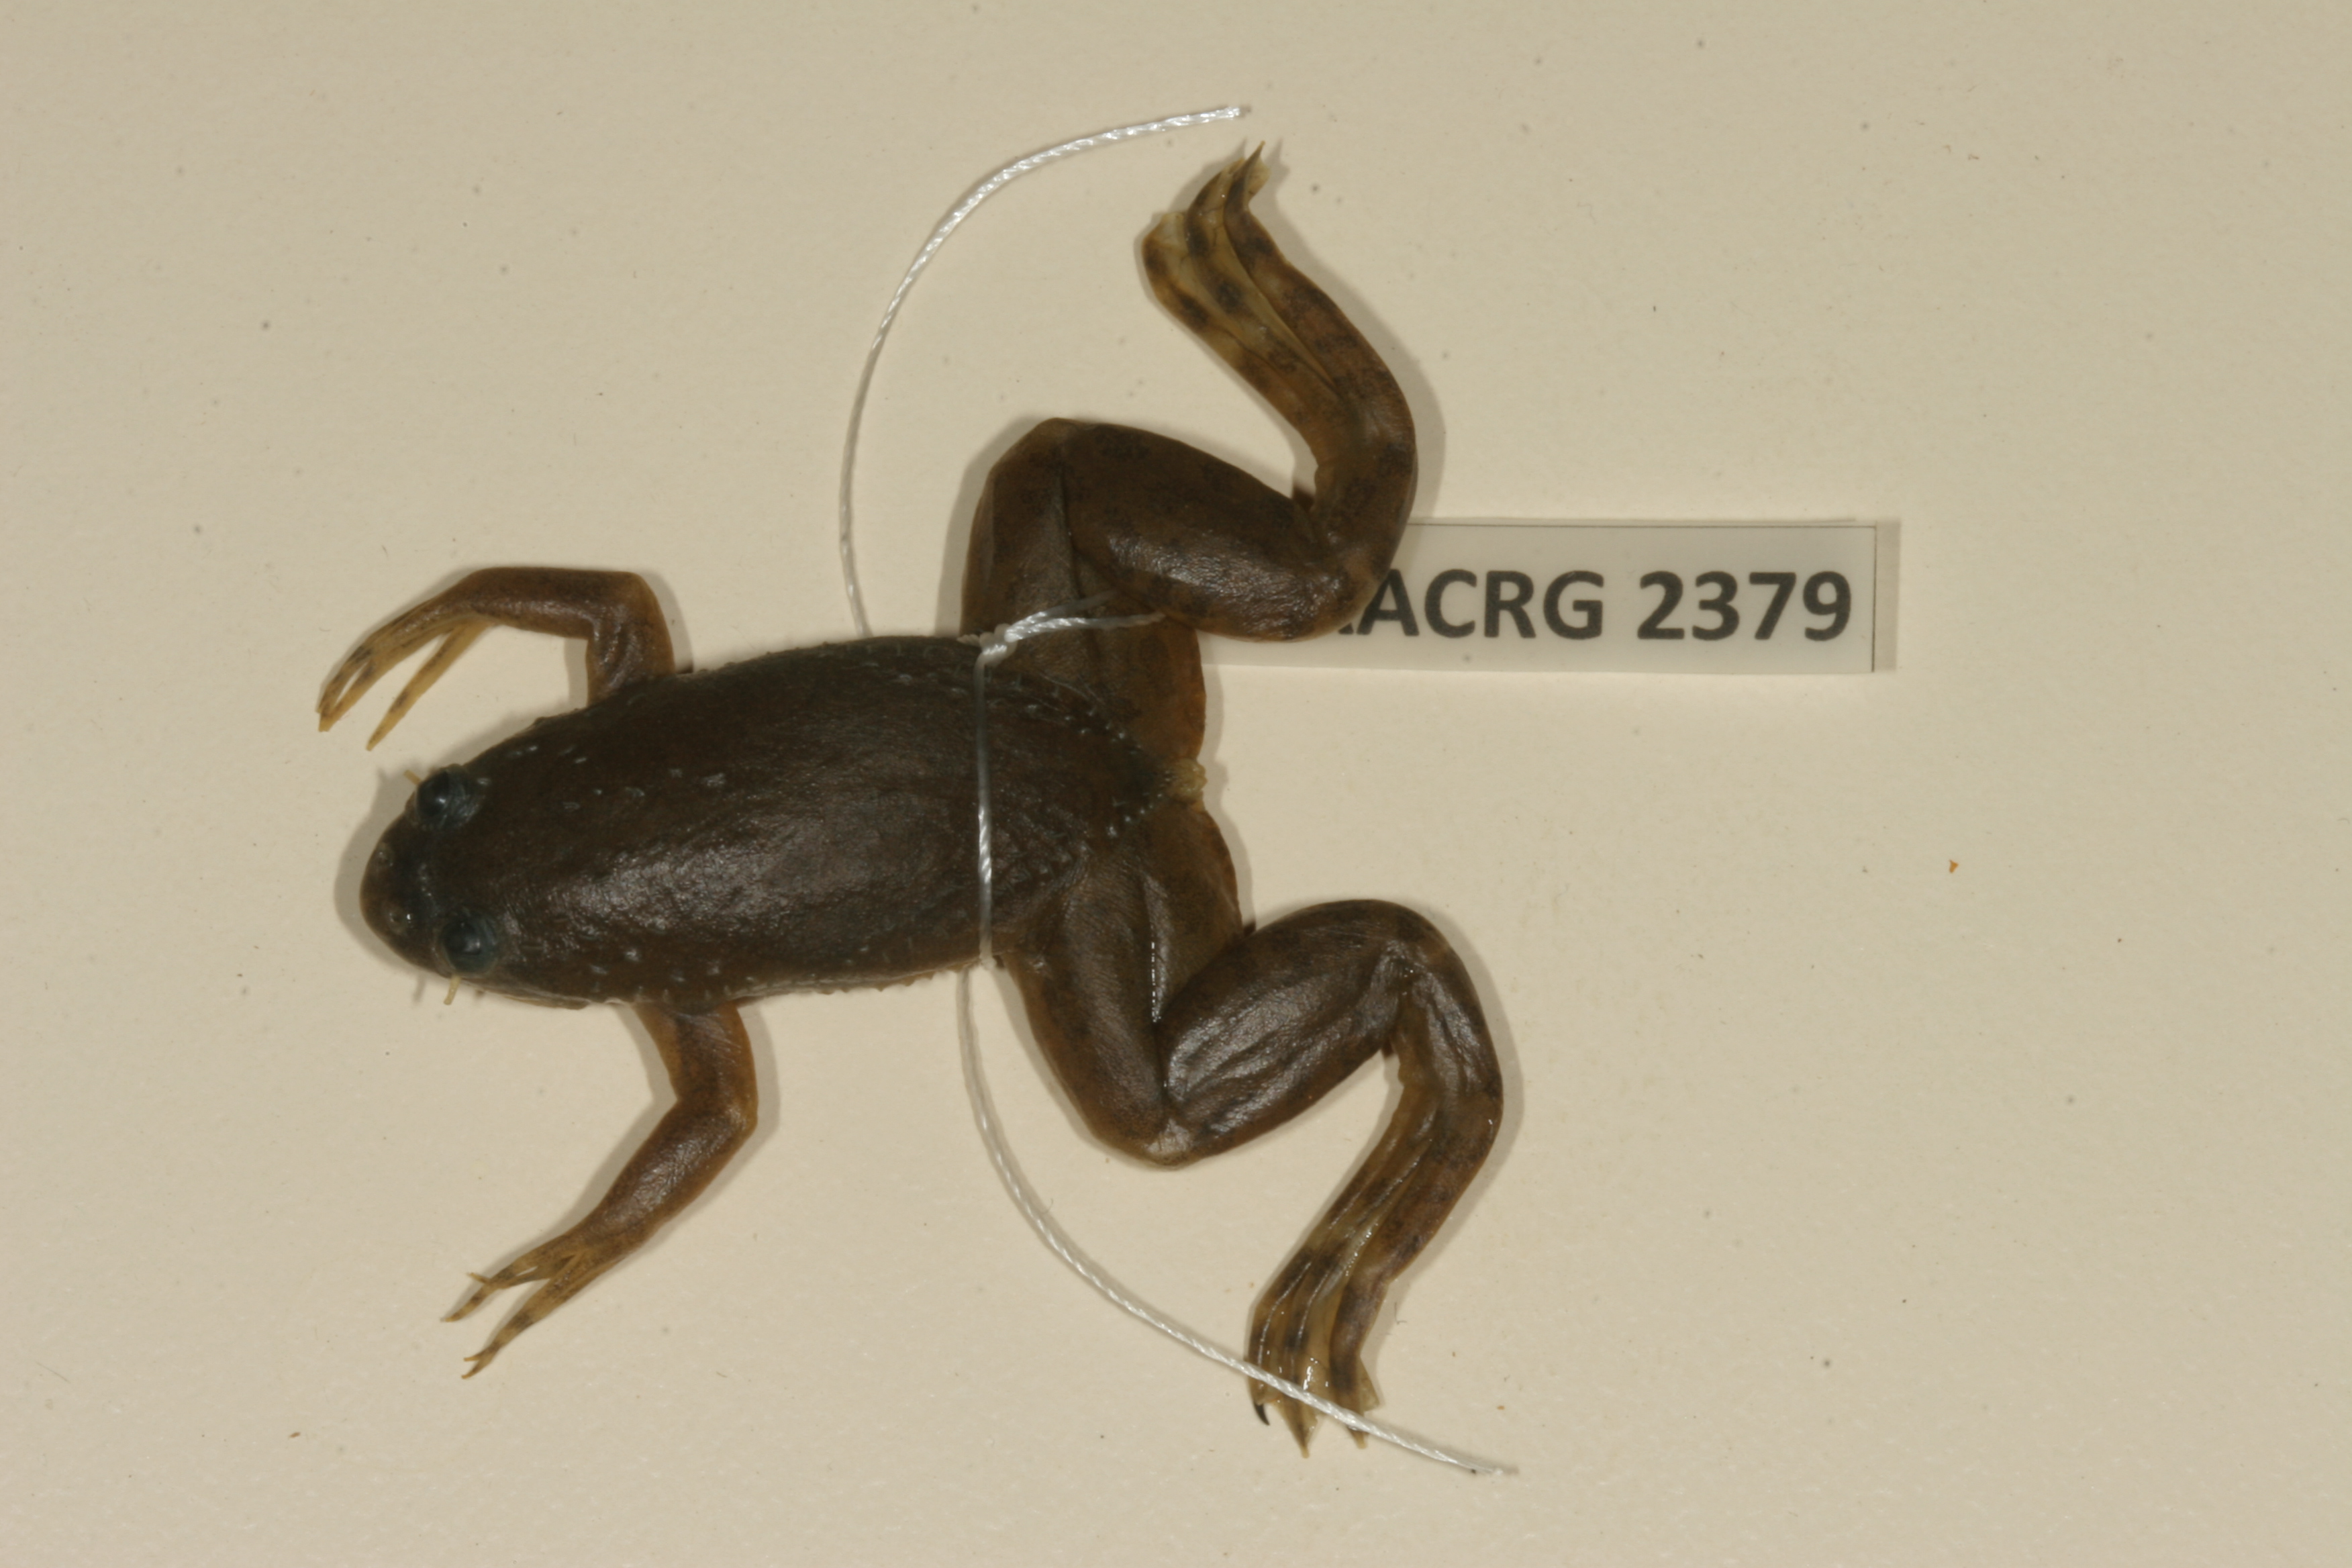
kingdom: Animalia
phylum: Chordata
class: Amphibia
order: Anura
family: Pipidae
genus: Xenopus
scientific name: Xenopus muelleri
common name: Muller's clawed frog
